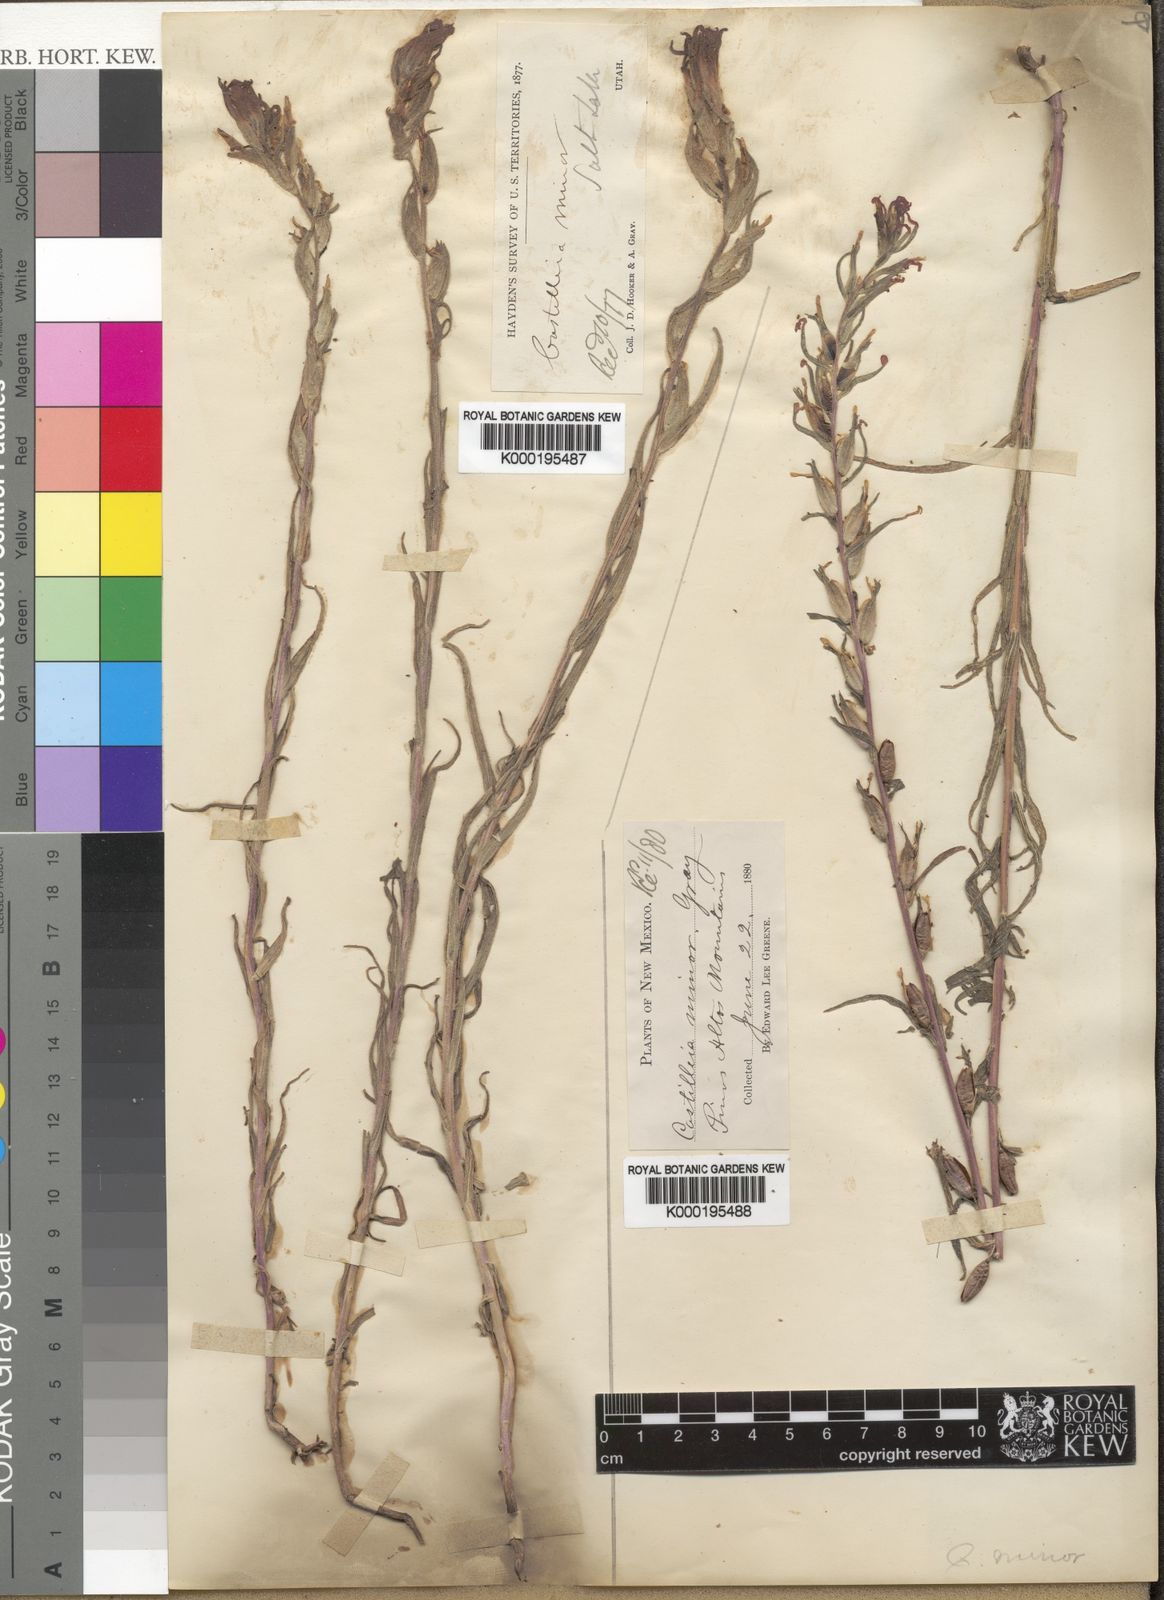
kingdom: Plantae
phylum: Tracheophyta
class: Magnoliopsida
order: Lamiales
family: Orobanchaceae
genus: Castilleja
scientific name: Castilleja minor
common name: Seep paintbrush
